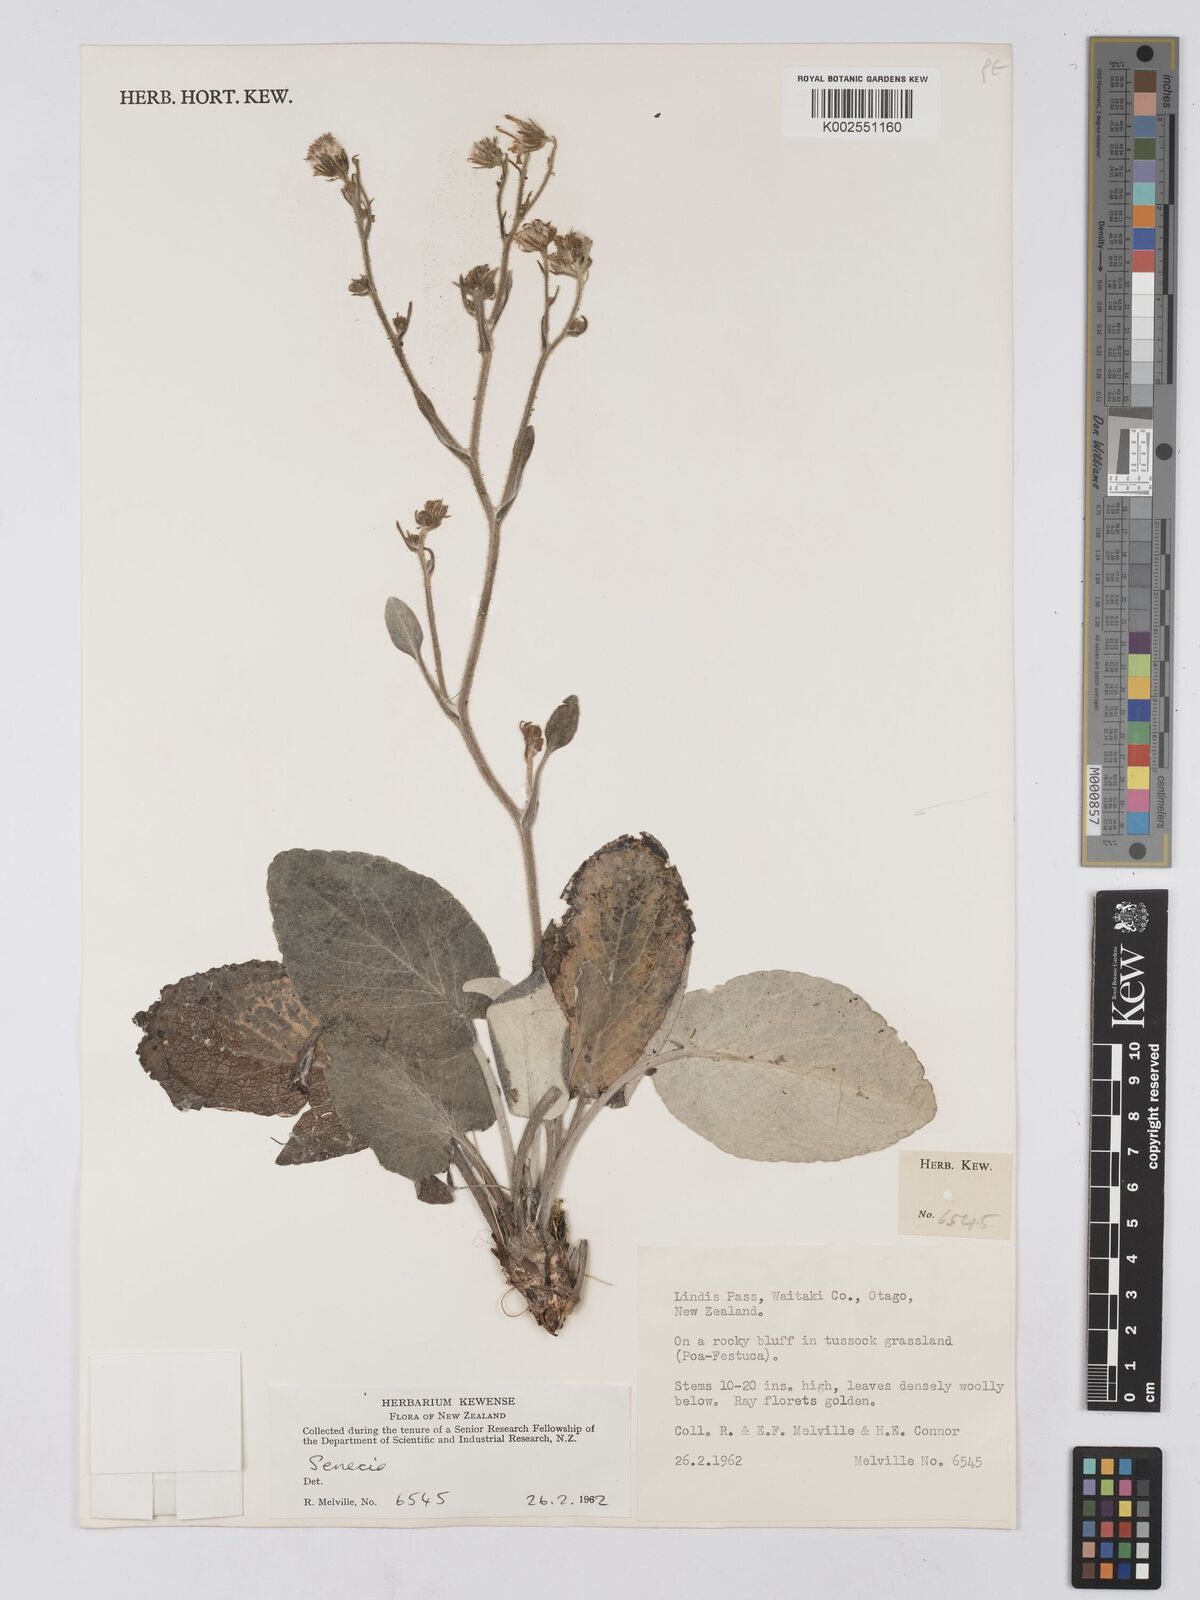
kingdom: Plantae
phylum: Tracheophyta
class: Magnoliopsida
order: Asterales
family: Asteraceae
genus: Brachyglottis
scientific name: Brachyglottis
